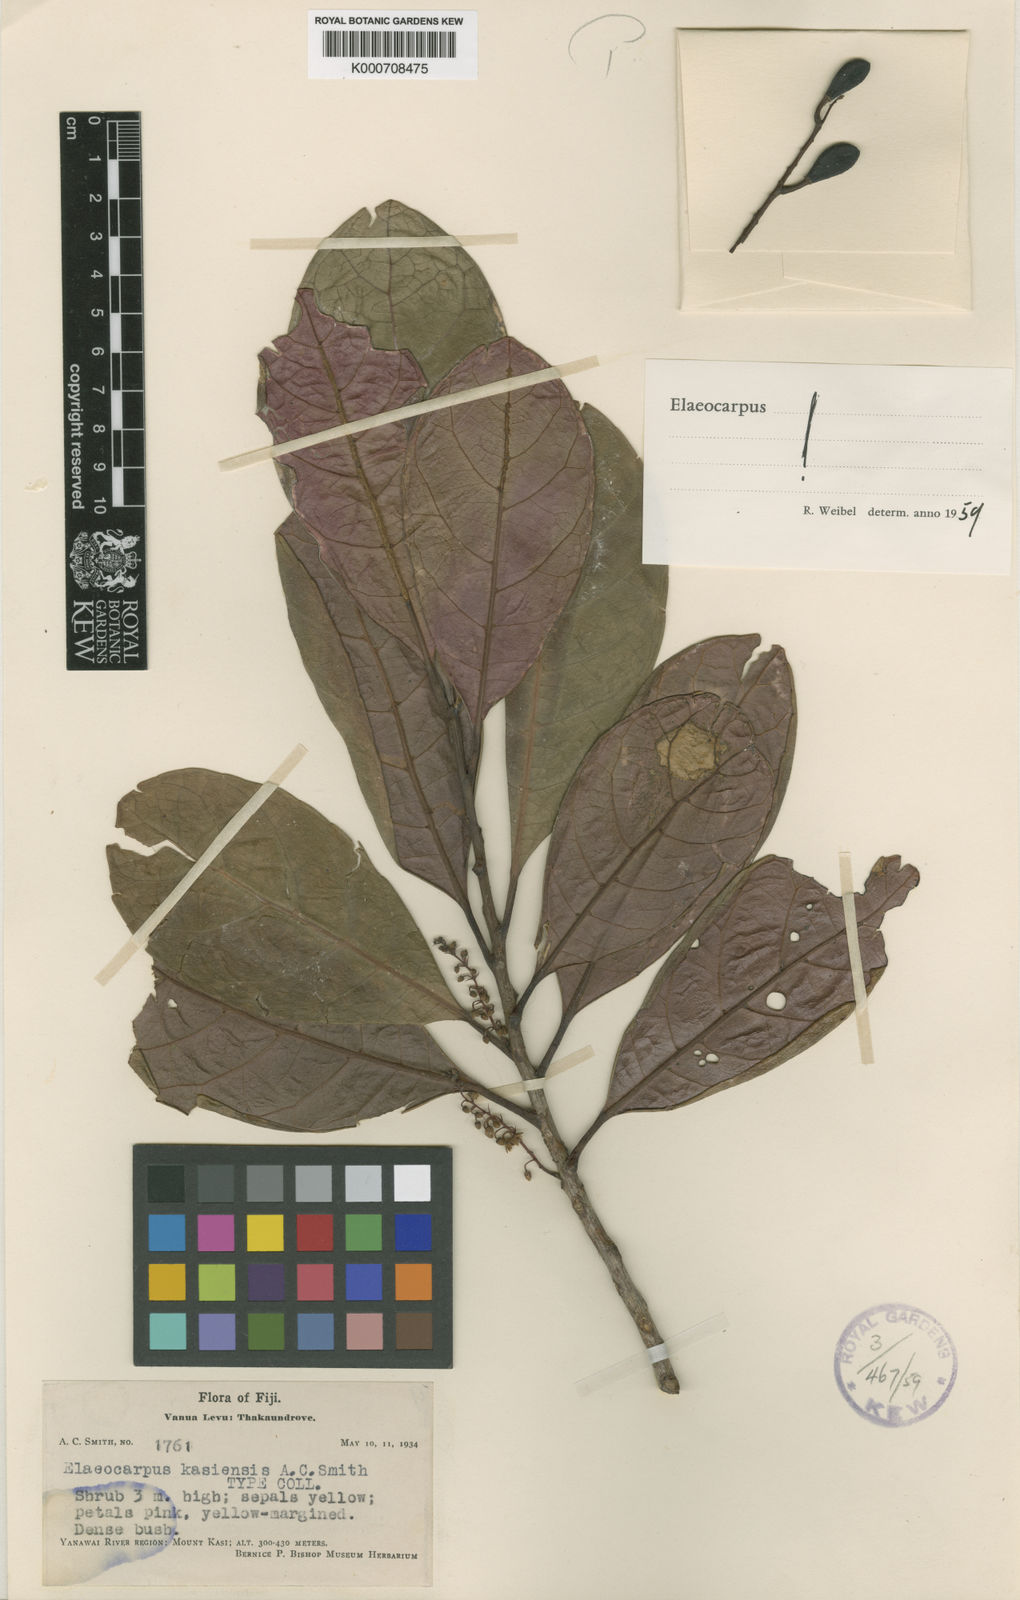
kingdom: Plantae
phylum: Tracheophyta
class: Magnoliopsida
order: Oxalidales
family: Elaeocarpaceae
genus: Elaeocarpus
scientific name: Elaeocarpus kasiensis
